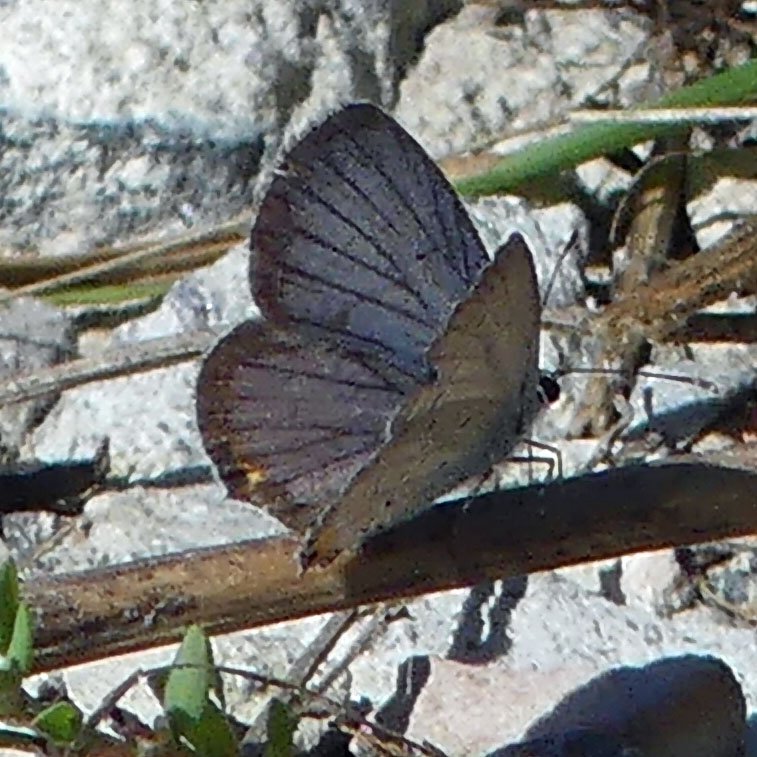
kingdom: Animalia
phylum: Arthropoda
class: Insecta
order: Lepidoptera
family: Lycaenidae
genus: Elkalyce
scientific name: Elkalyce comyntas
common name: Eastern Tailed-Blue
